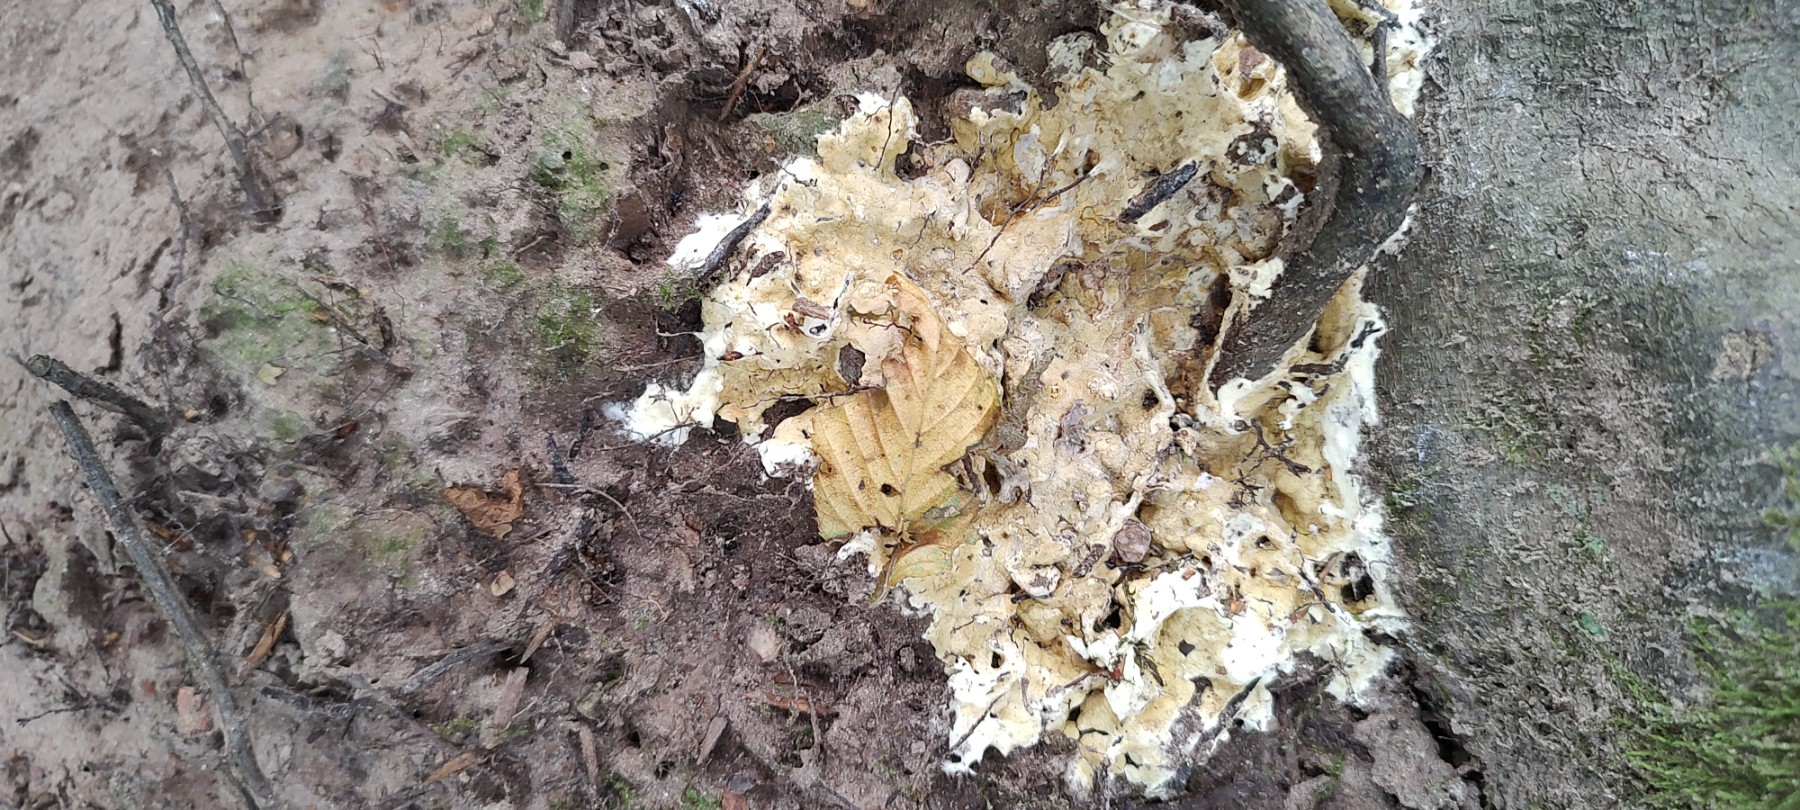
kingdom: Fungi
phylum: Ascomycota
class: Sordariomycetes
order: Hypocreales
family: Hypocreaceae
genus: Trichoderma
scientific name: Trichoderma citrinum
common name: udbredt kødkerne
